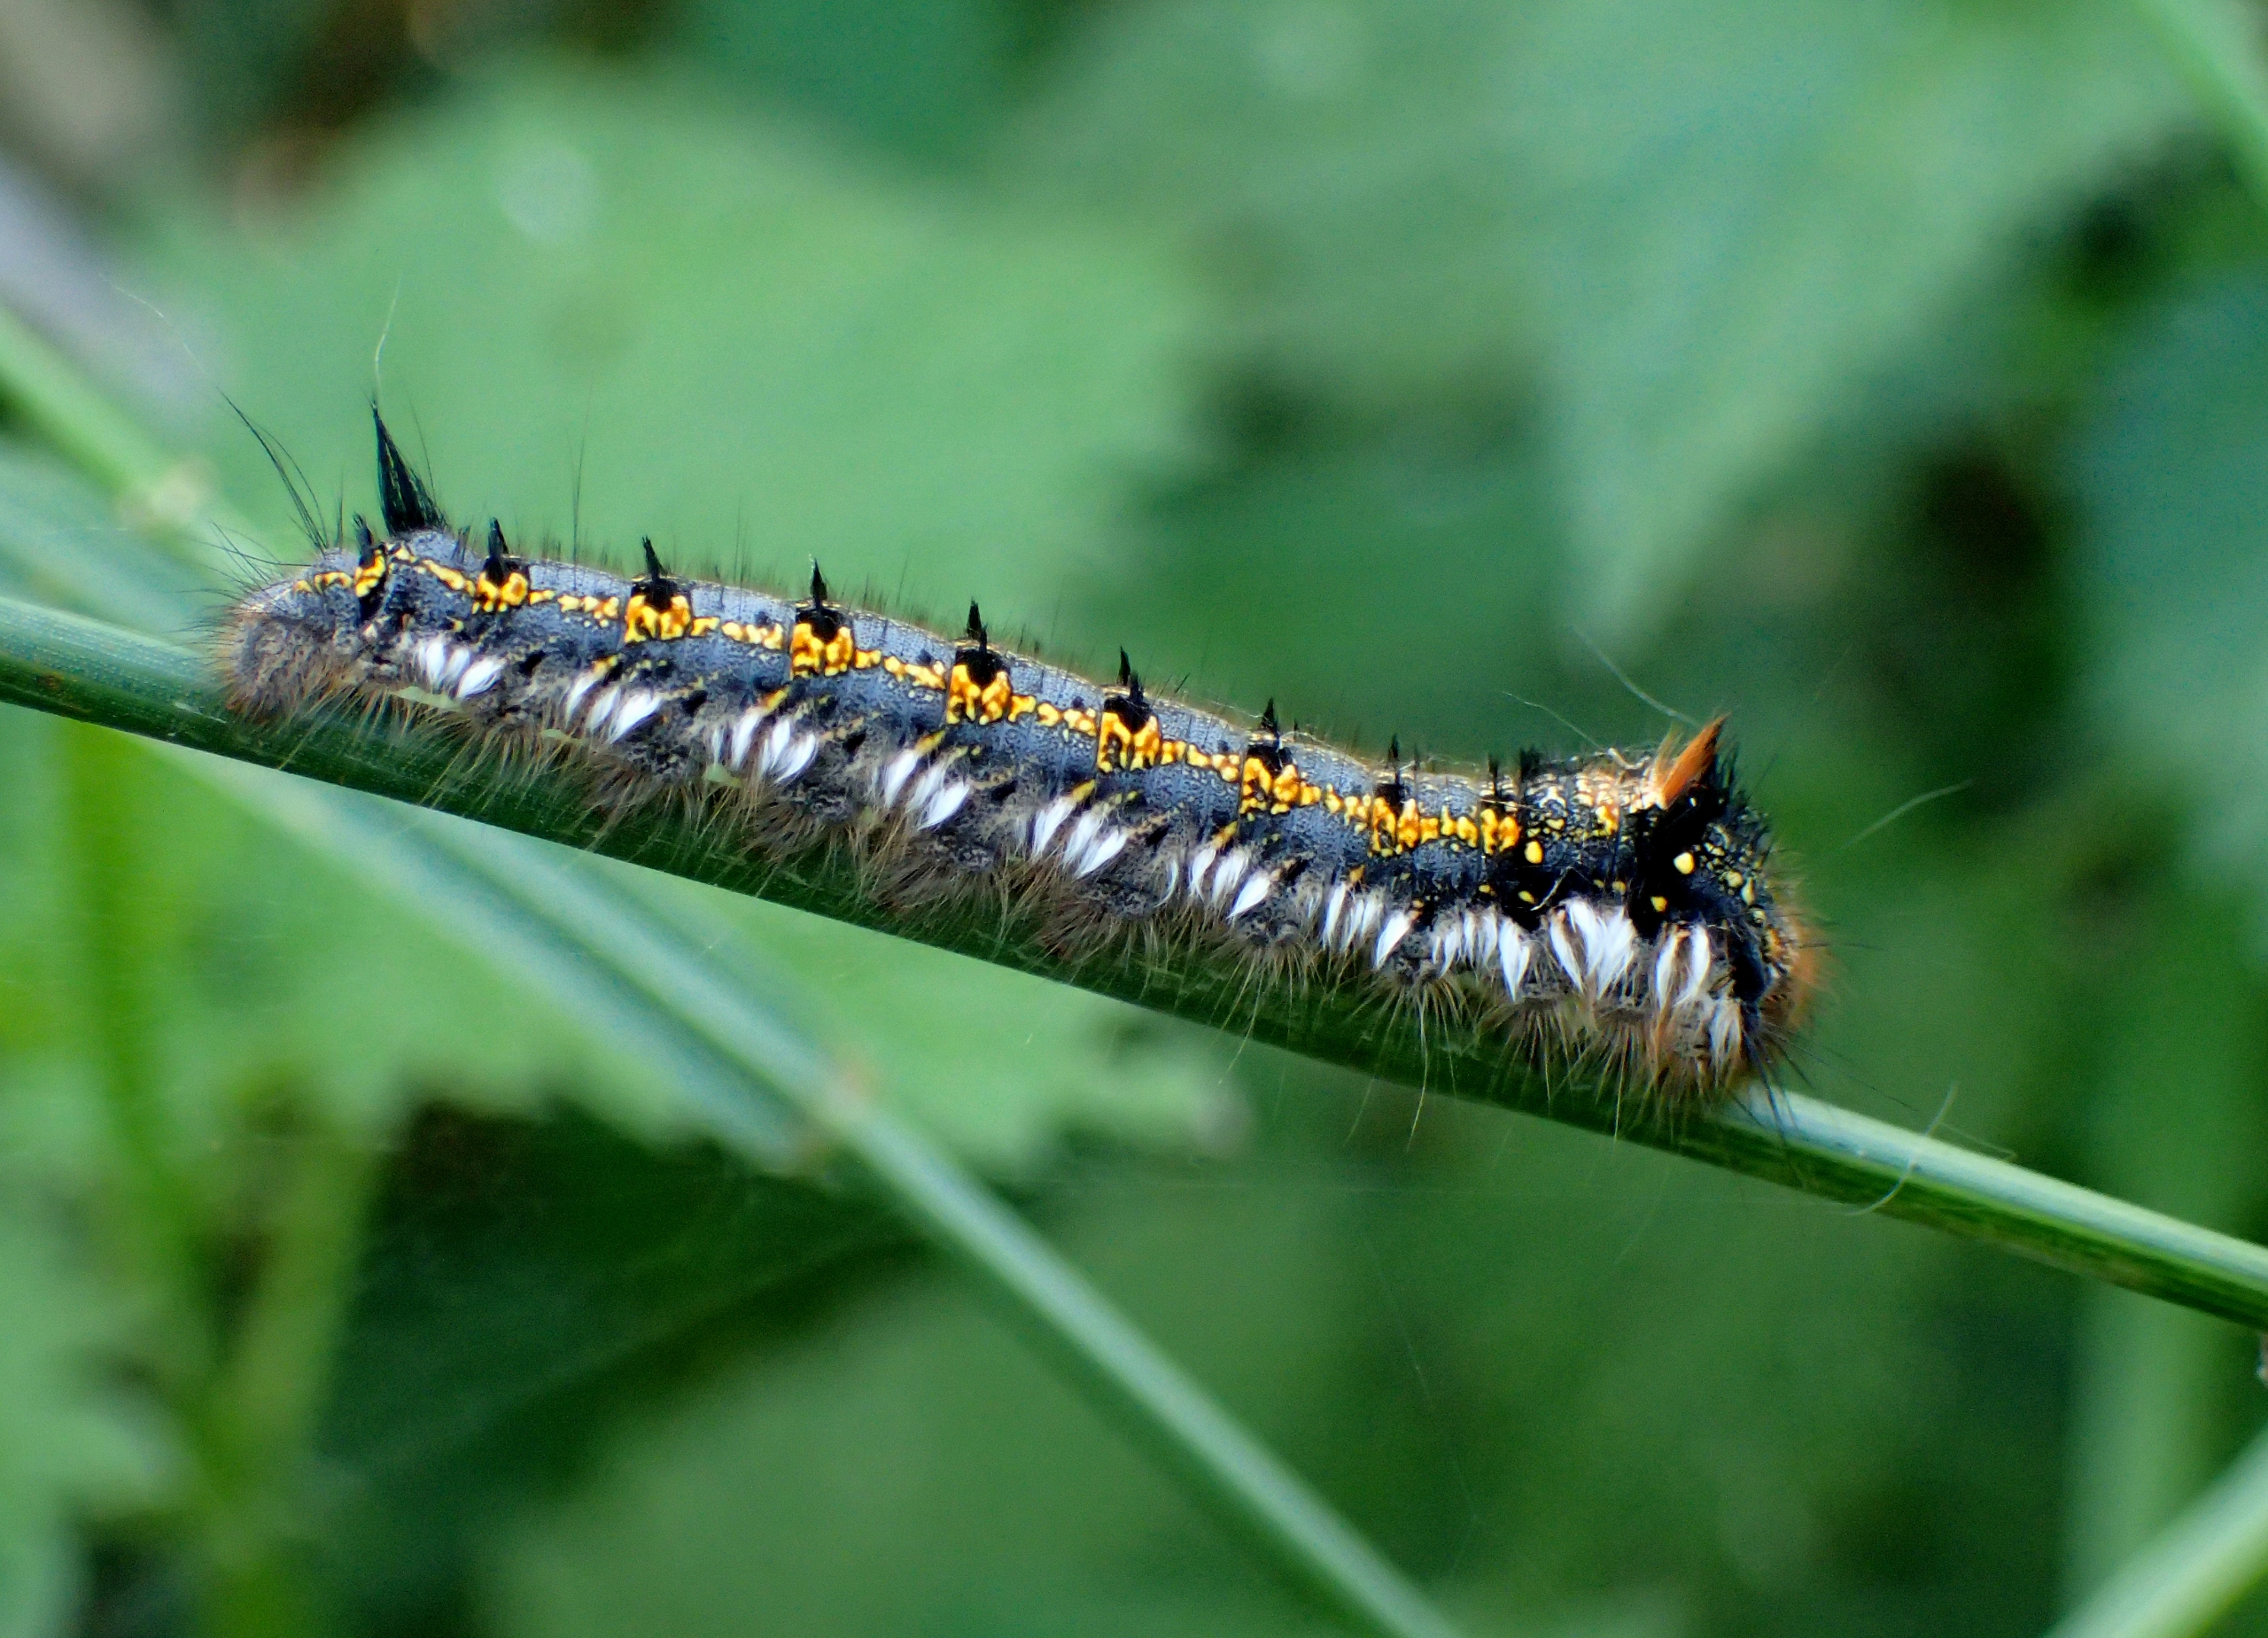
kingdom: Animalia
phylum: Arthropoda
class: Insecta
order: Lepidoptera
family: Lasiocampidae
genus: Euthrix
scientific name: Euthrix potatoria
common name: Græsspinder
